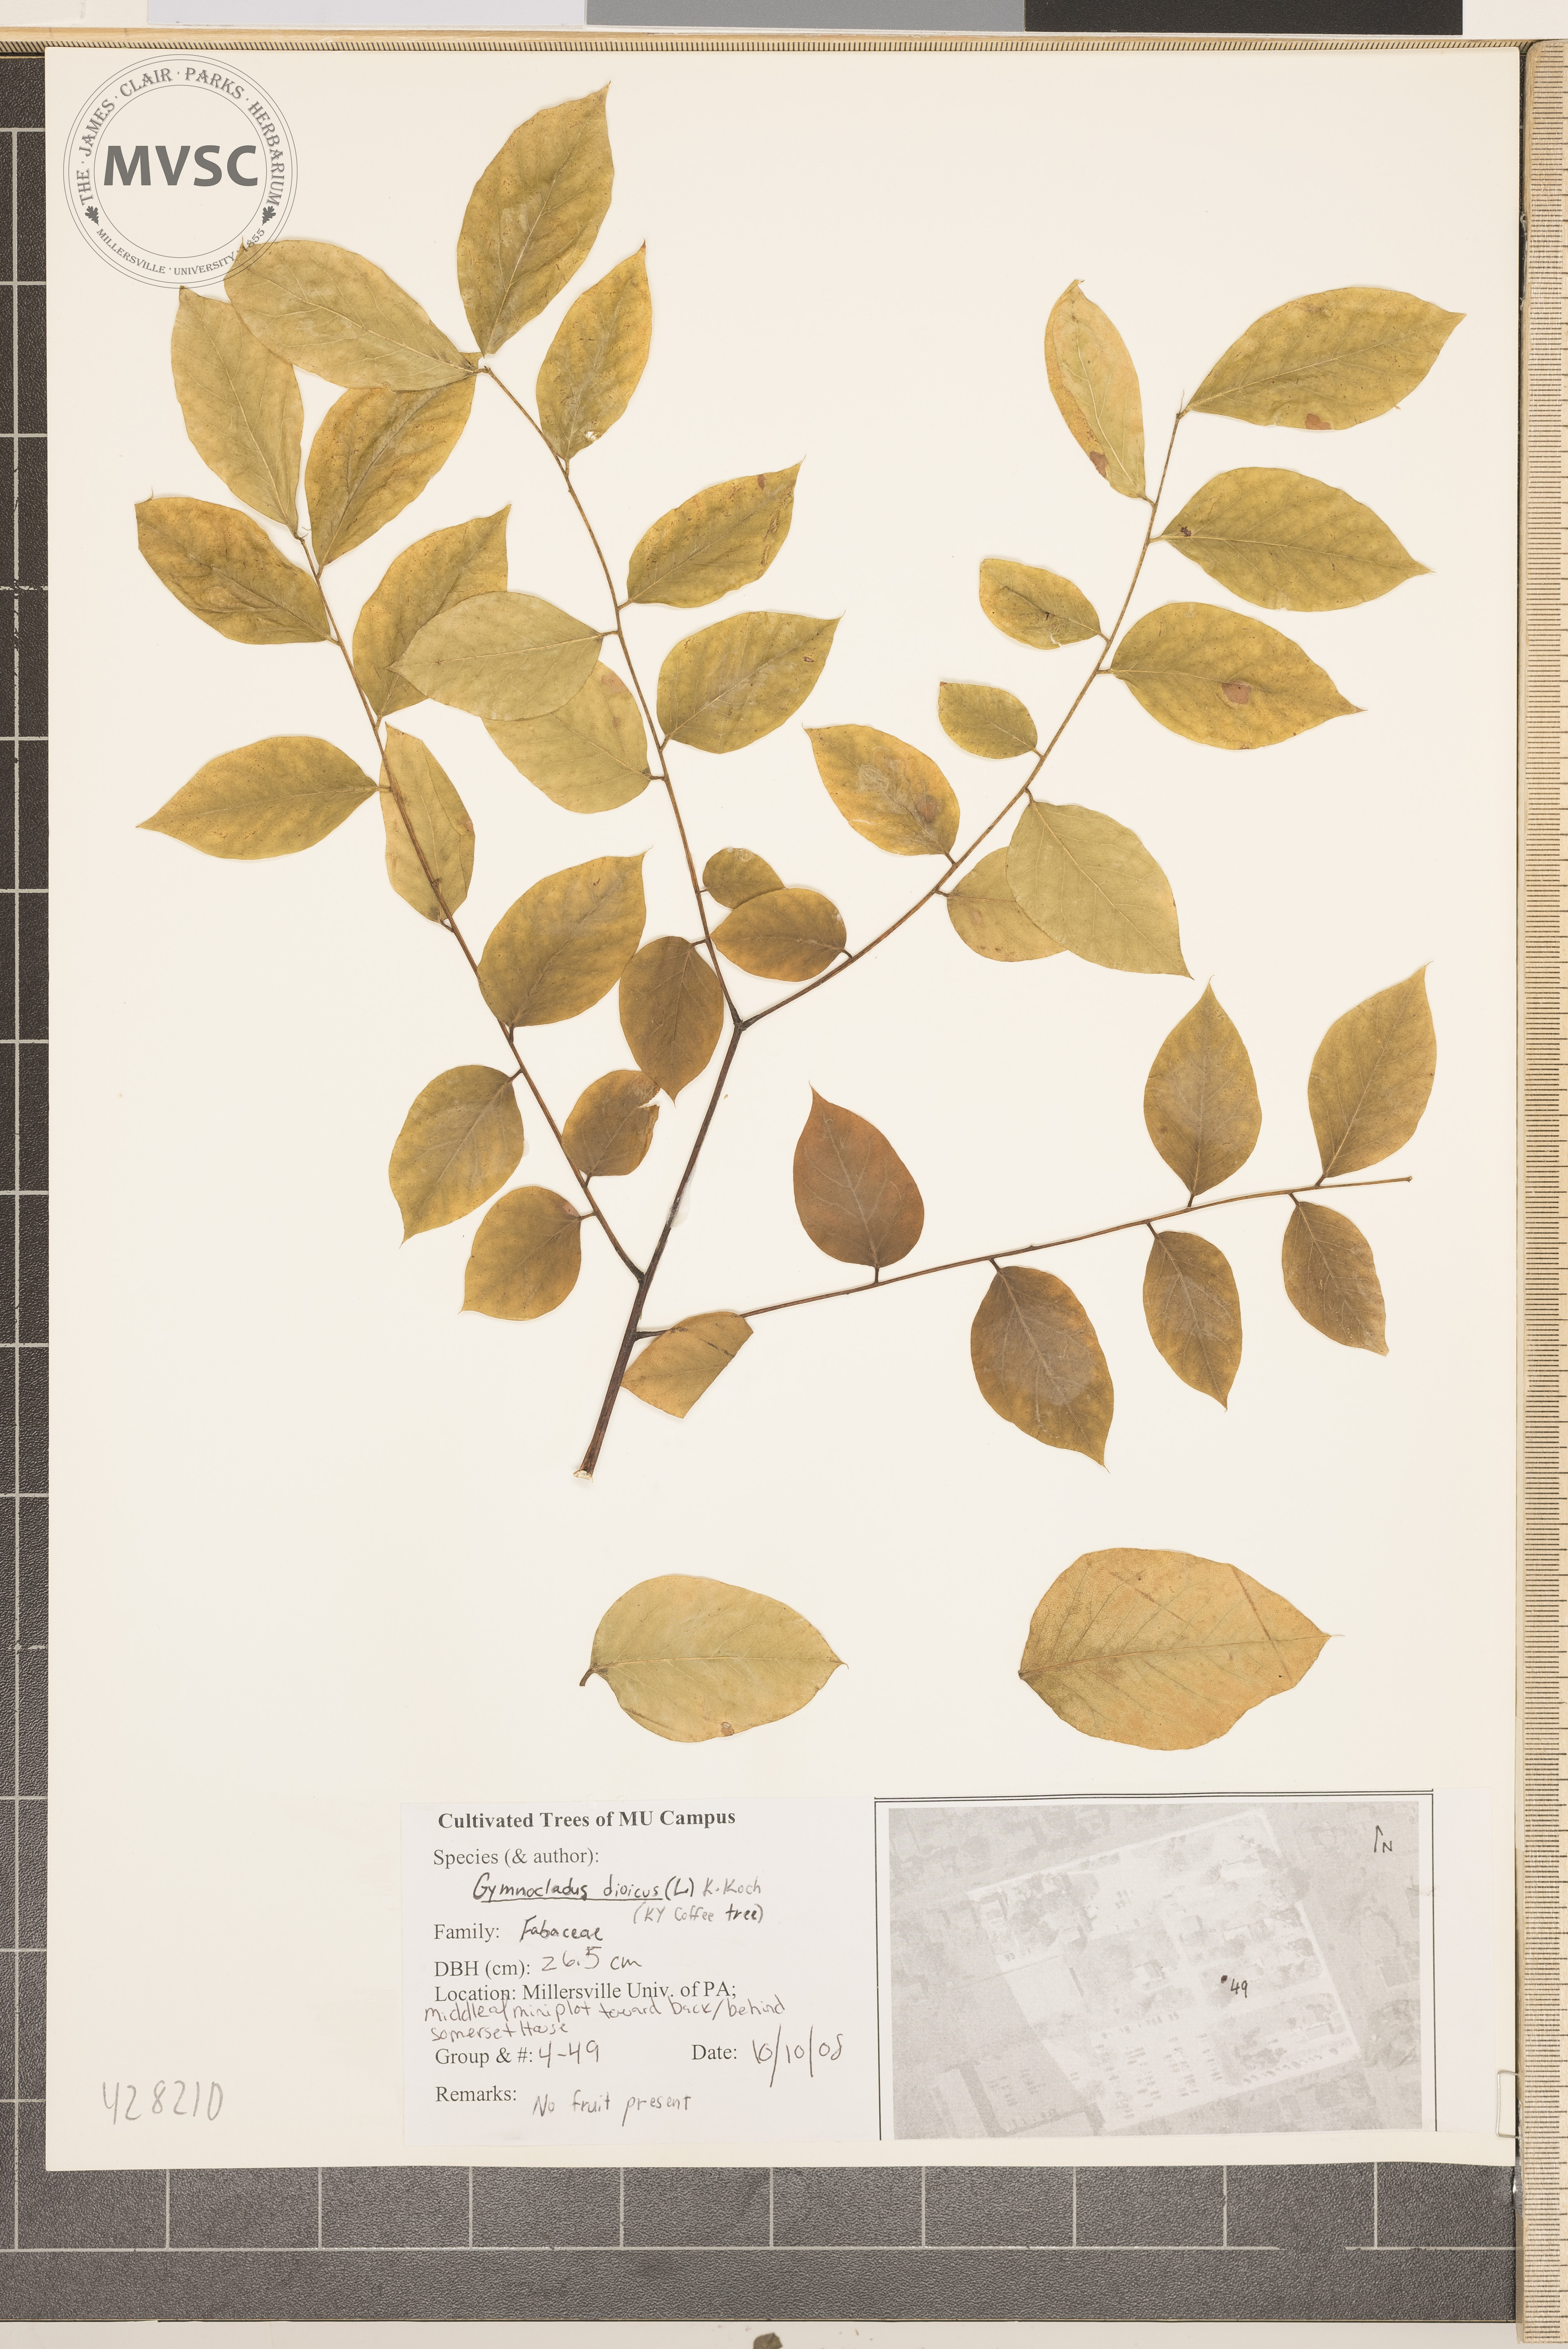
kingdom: Plantae
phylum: Tracheophyta
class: Magnoliopsida
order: Fabales
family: Fabaceae
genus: Gymnocladus
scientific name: Gymnocladus dioicus
